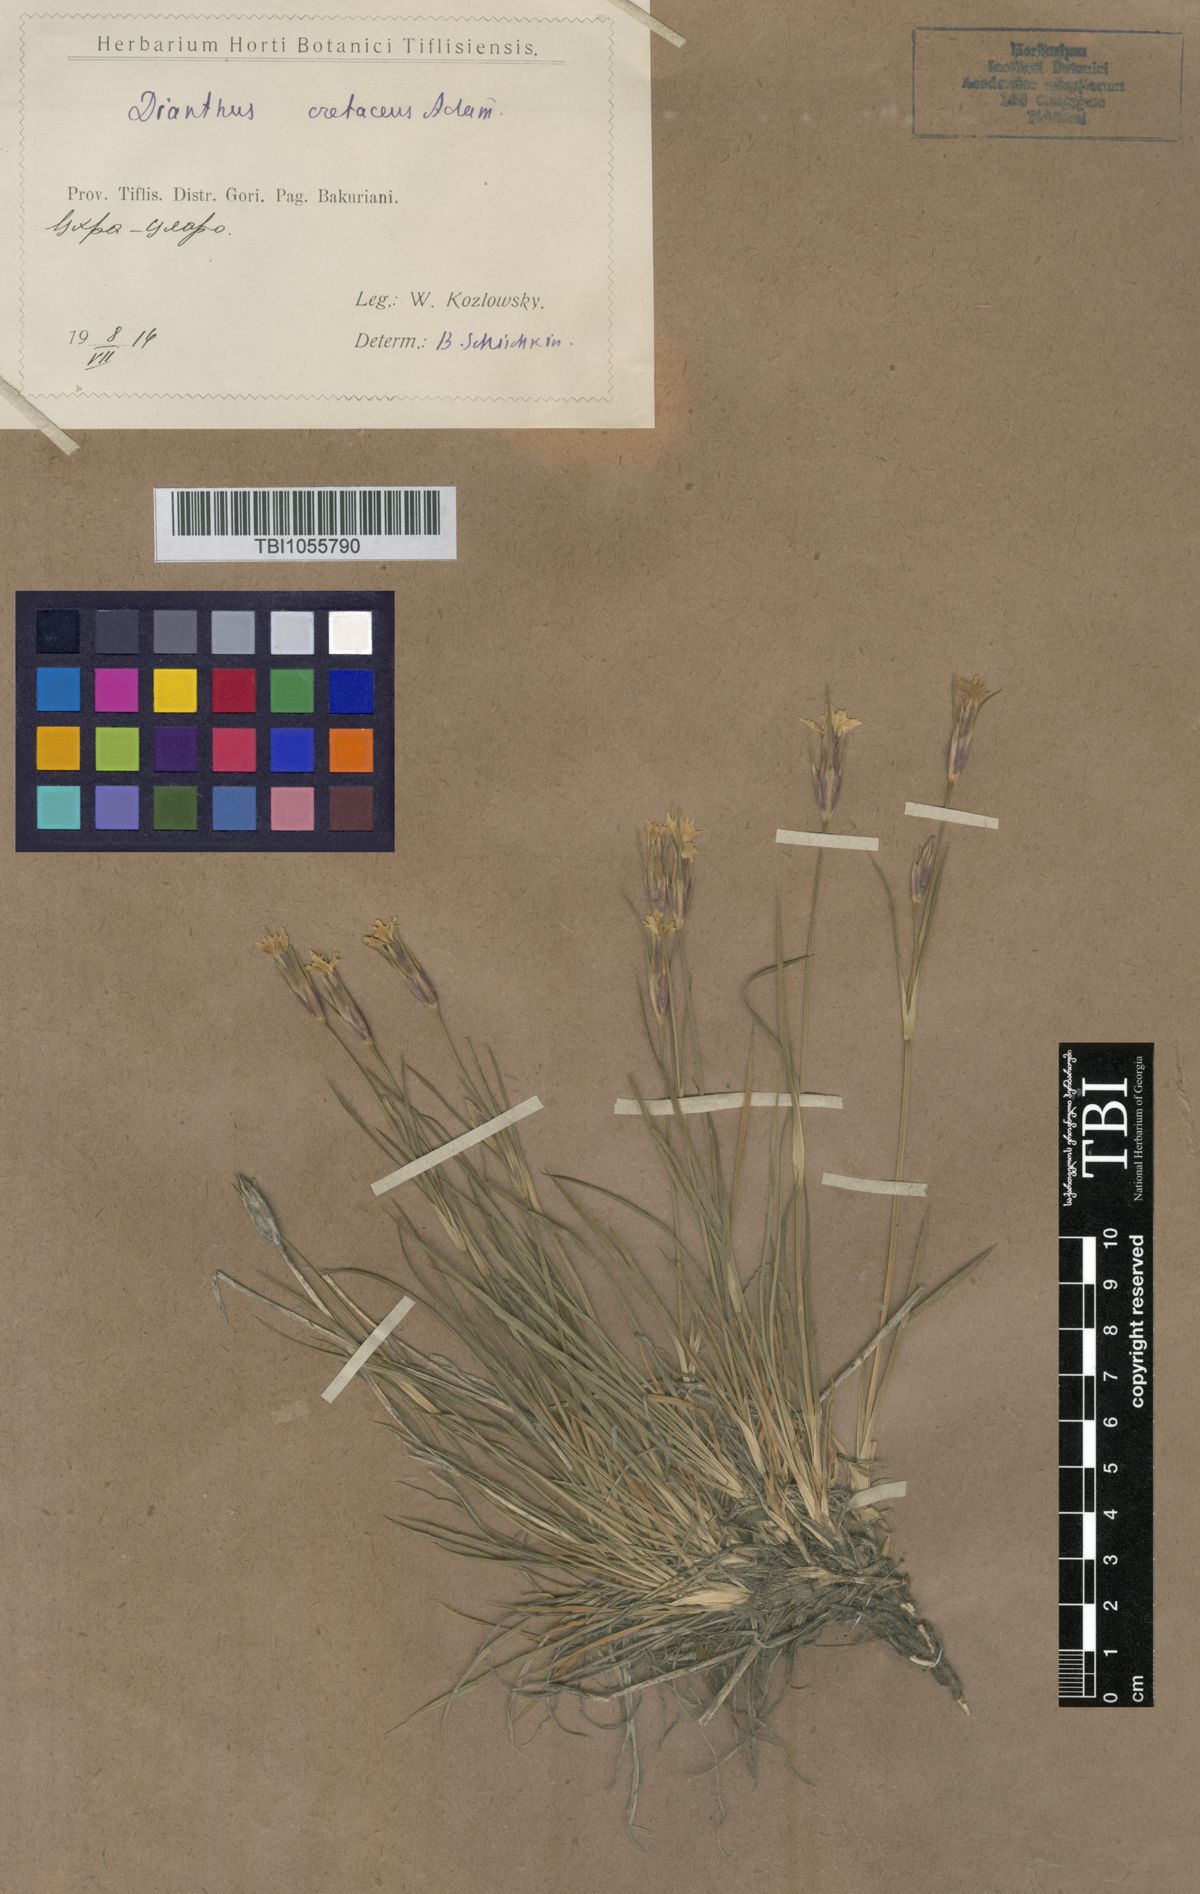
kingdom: Plantae
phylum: Tracheophyta
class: Magnoliopsida
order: Caryophyllales
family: Caryophyllaceae
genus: Dianthus
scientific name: Dianthus cretaceus
